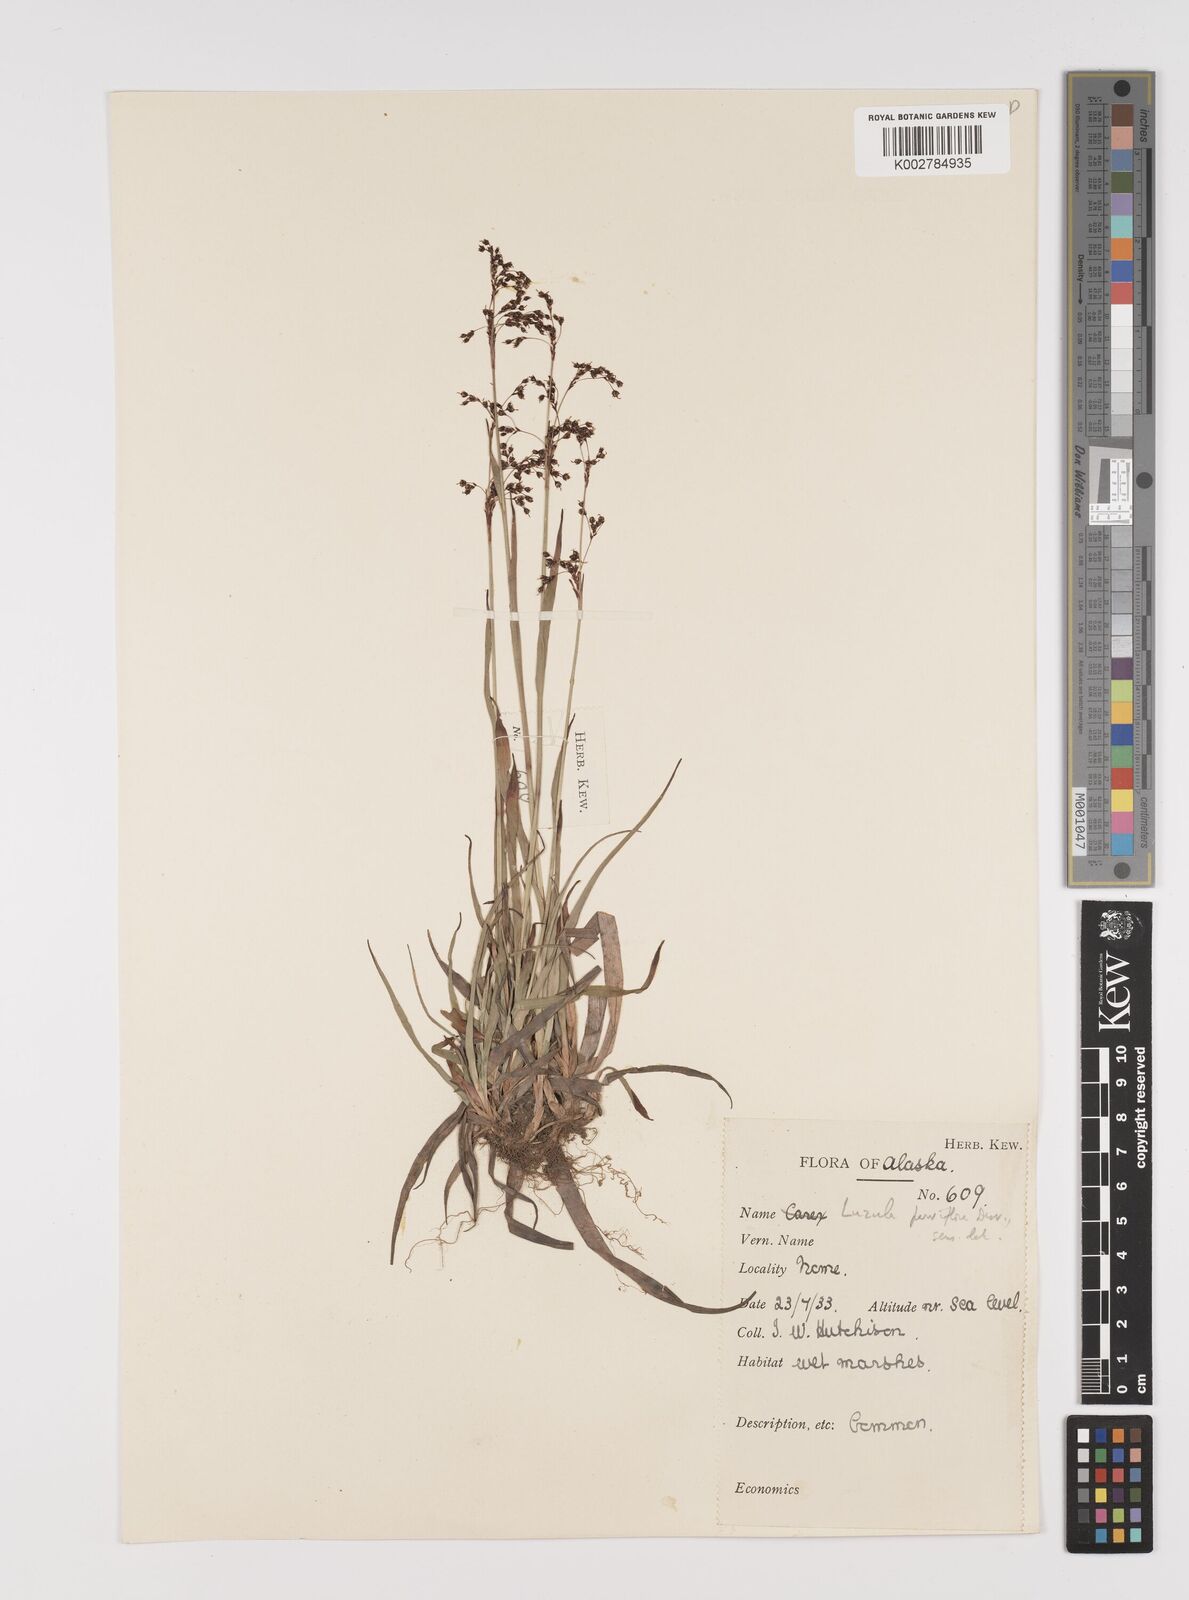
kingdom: Plantae
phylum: Tracheophyta
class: Liliopsida
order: Poales
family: Juncaceae
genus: Luzula
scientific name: Luzula parviflora
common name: Millet woodrush
